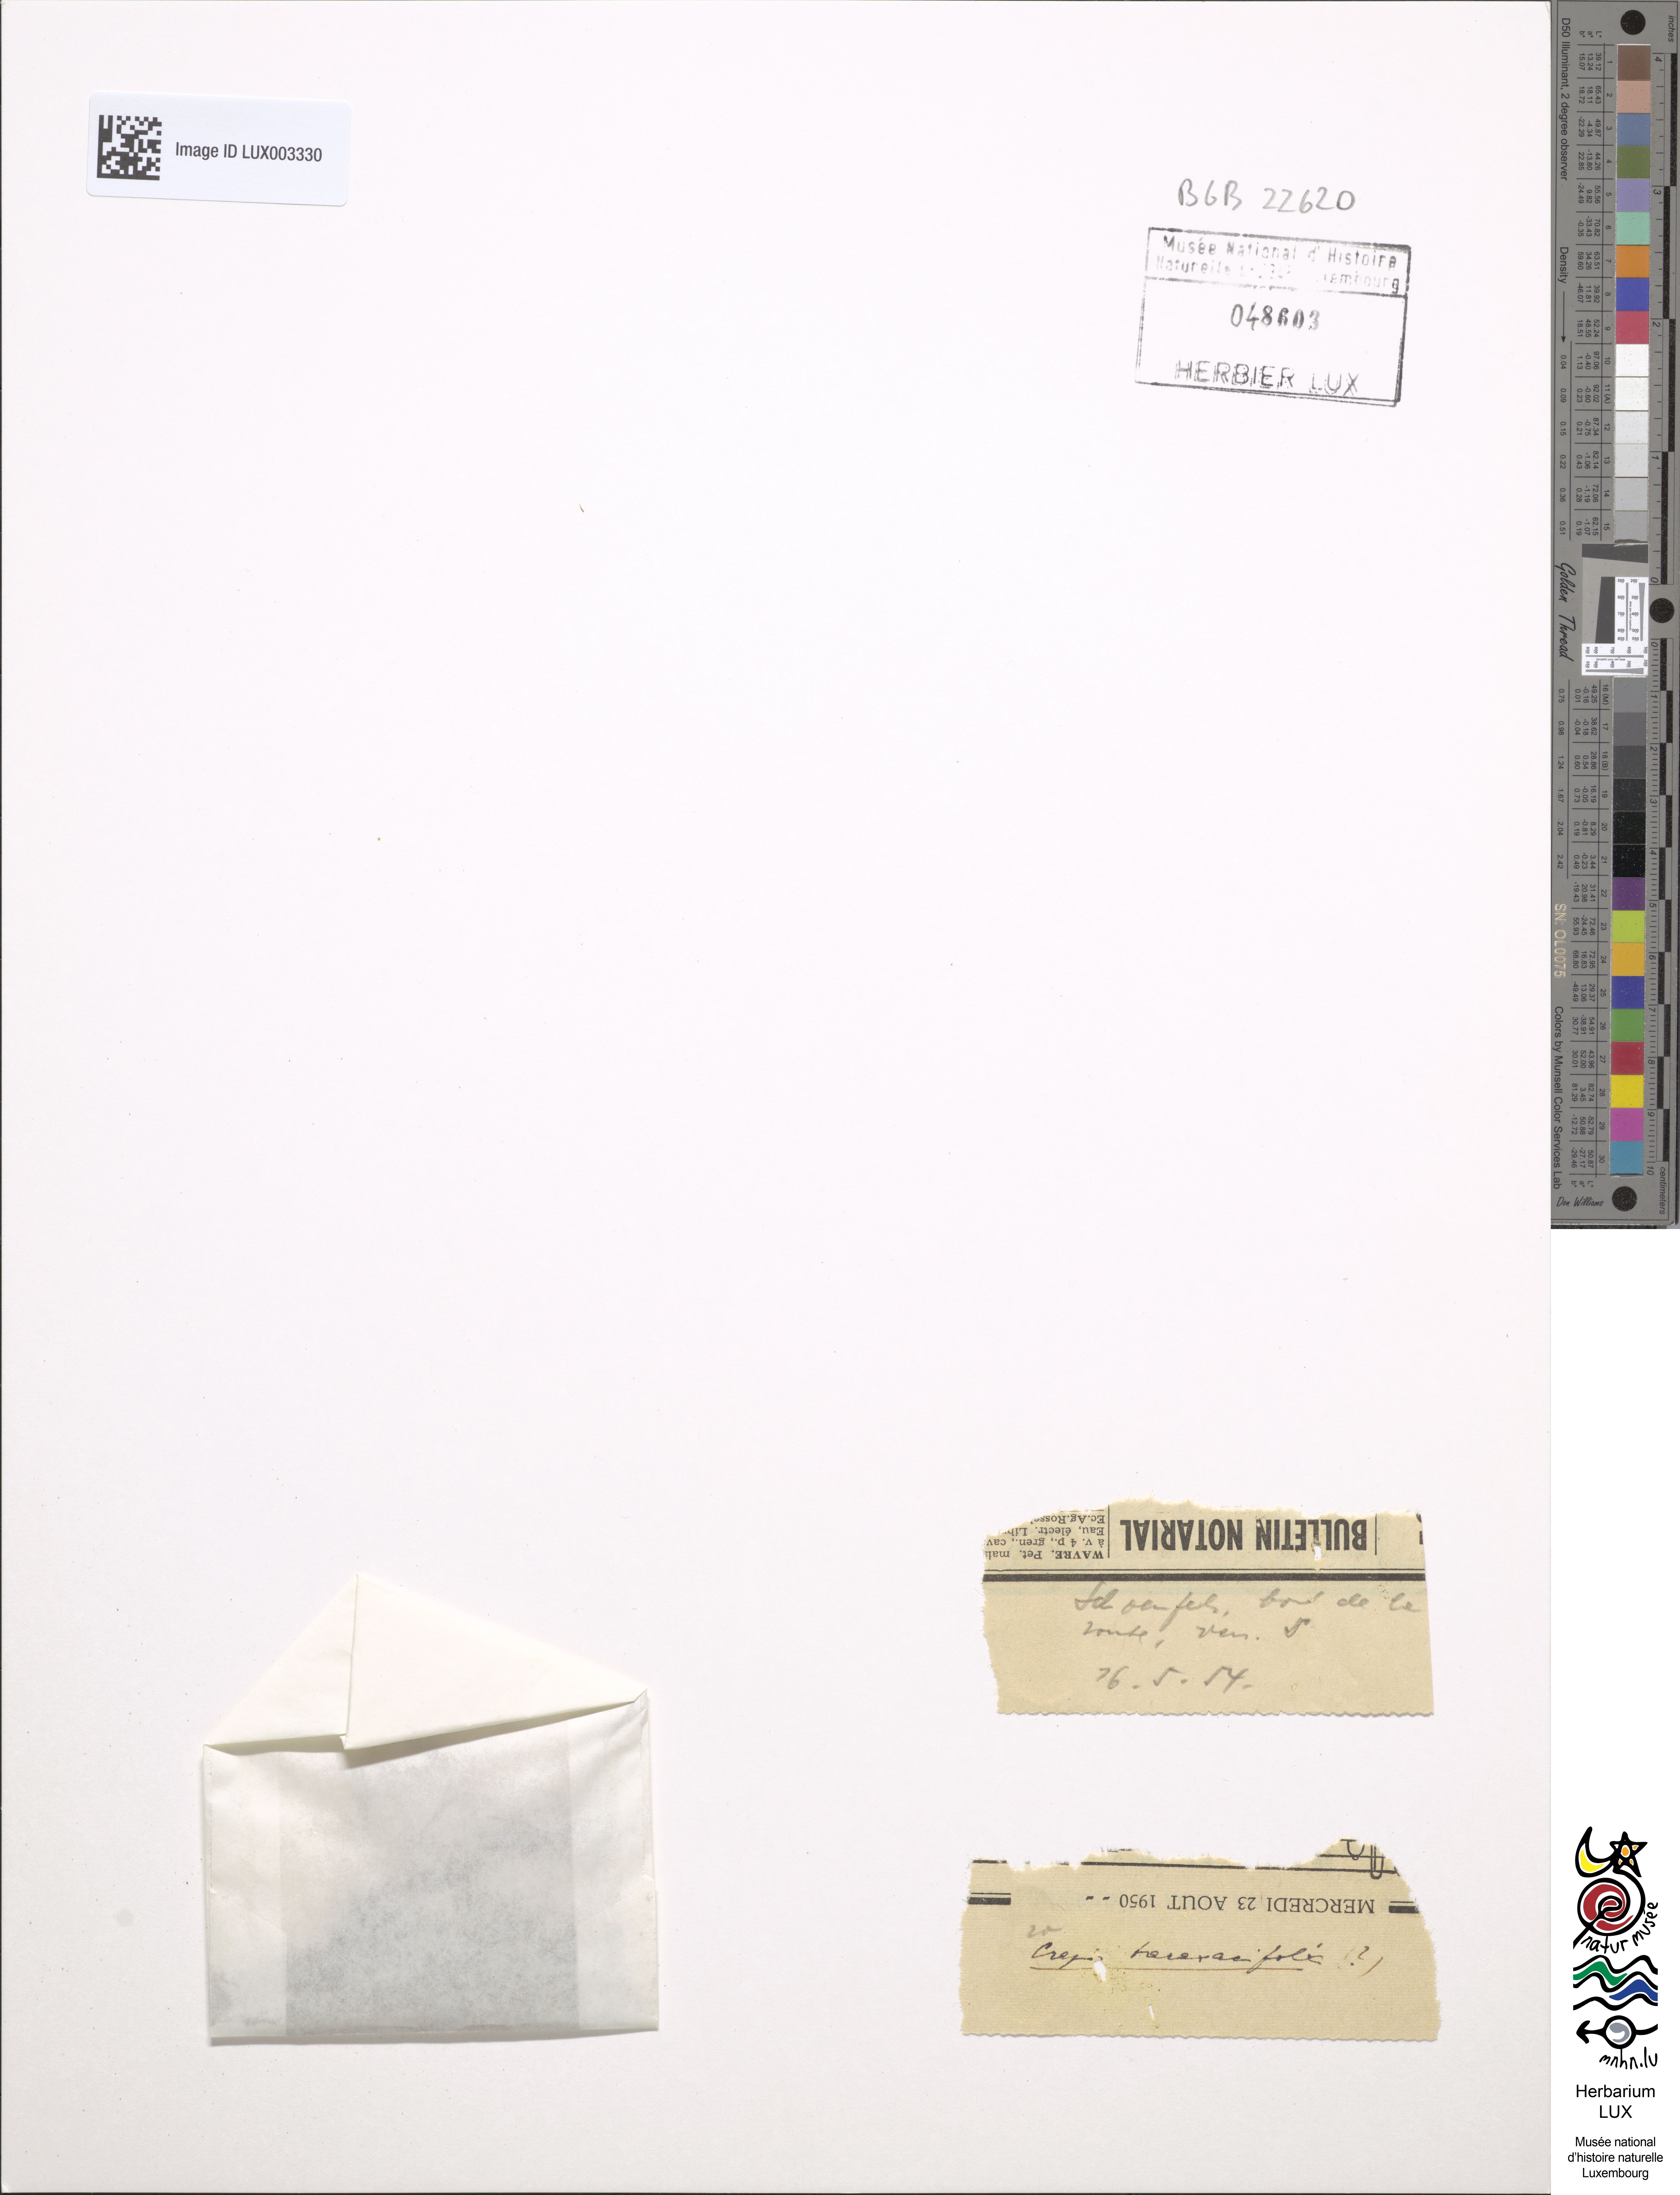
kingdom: Plantae
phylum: Tracheophyta
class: Magnoliopsida
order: Asterales
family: Asteraceae
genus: Crepis
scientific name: Crepis vesicaria
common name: Beaked hawksbeard
